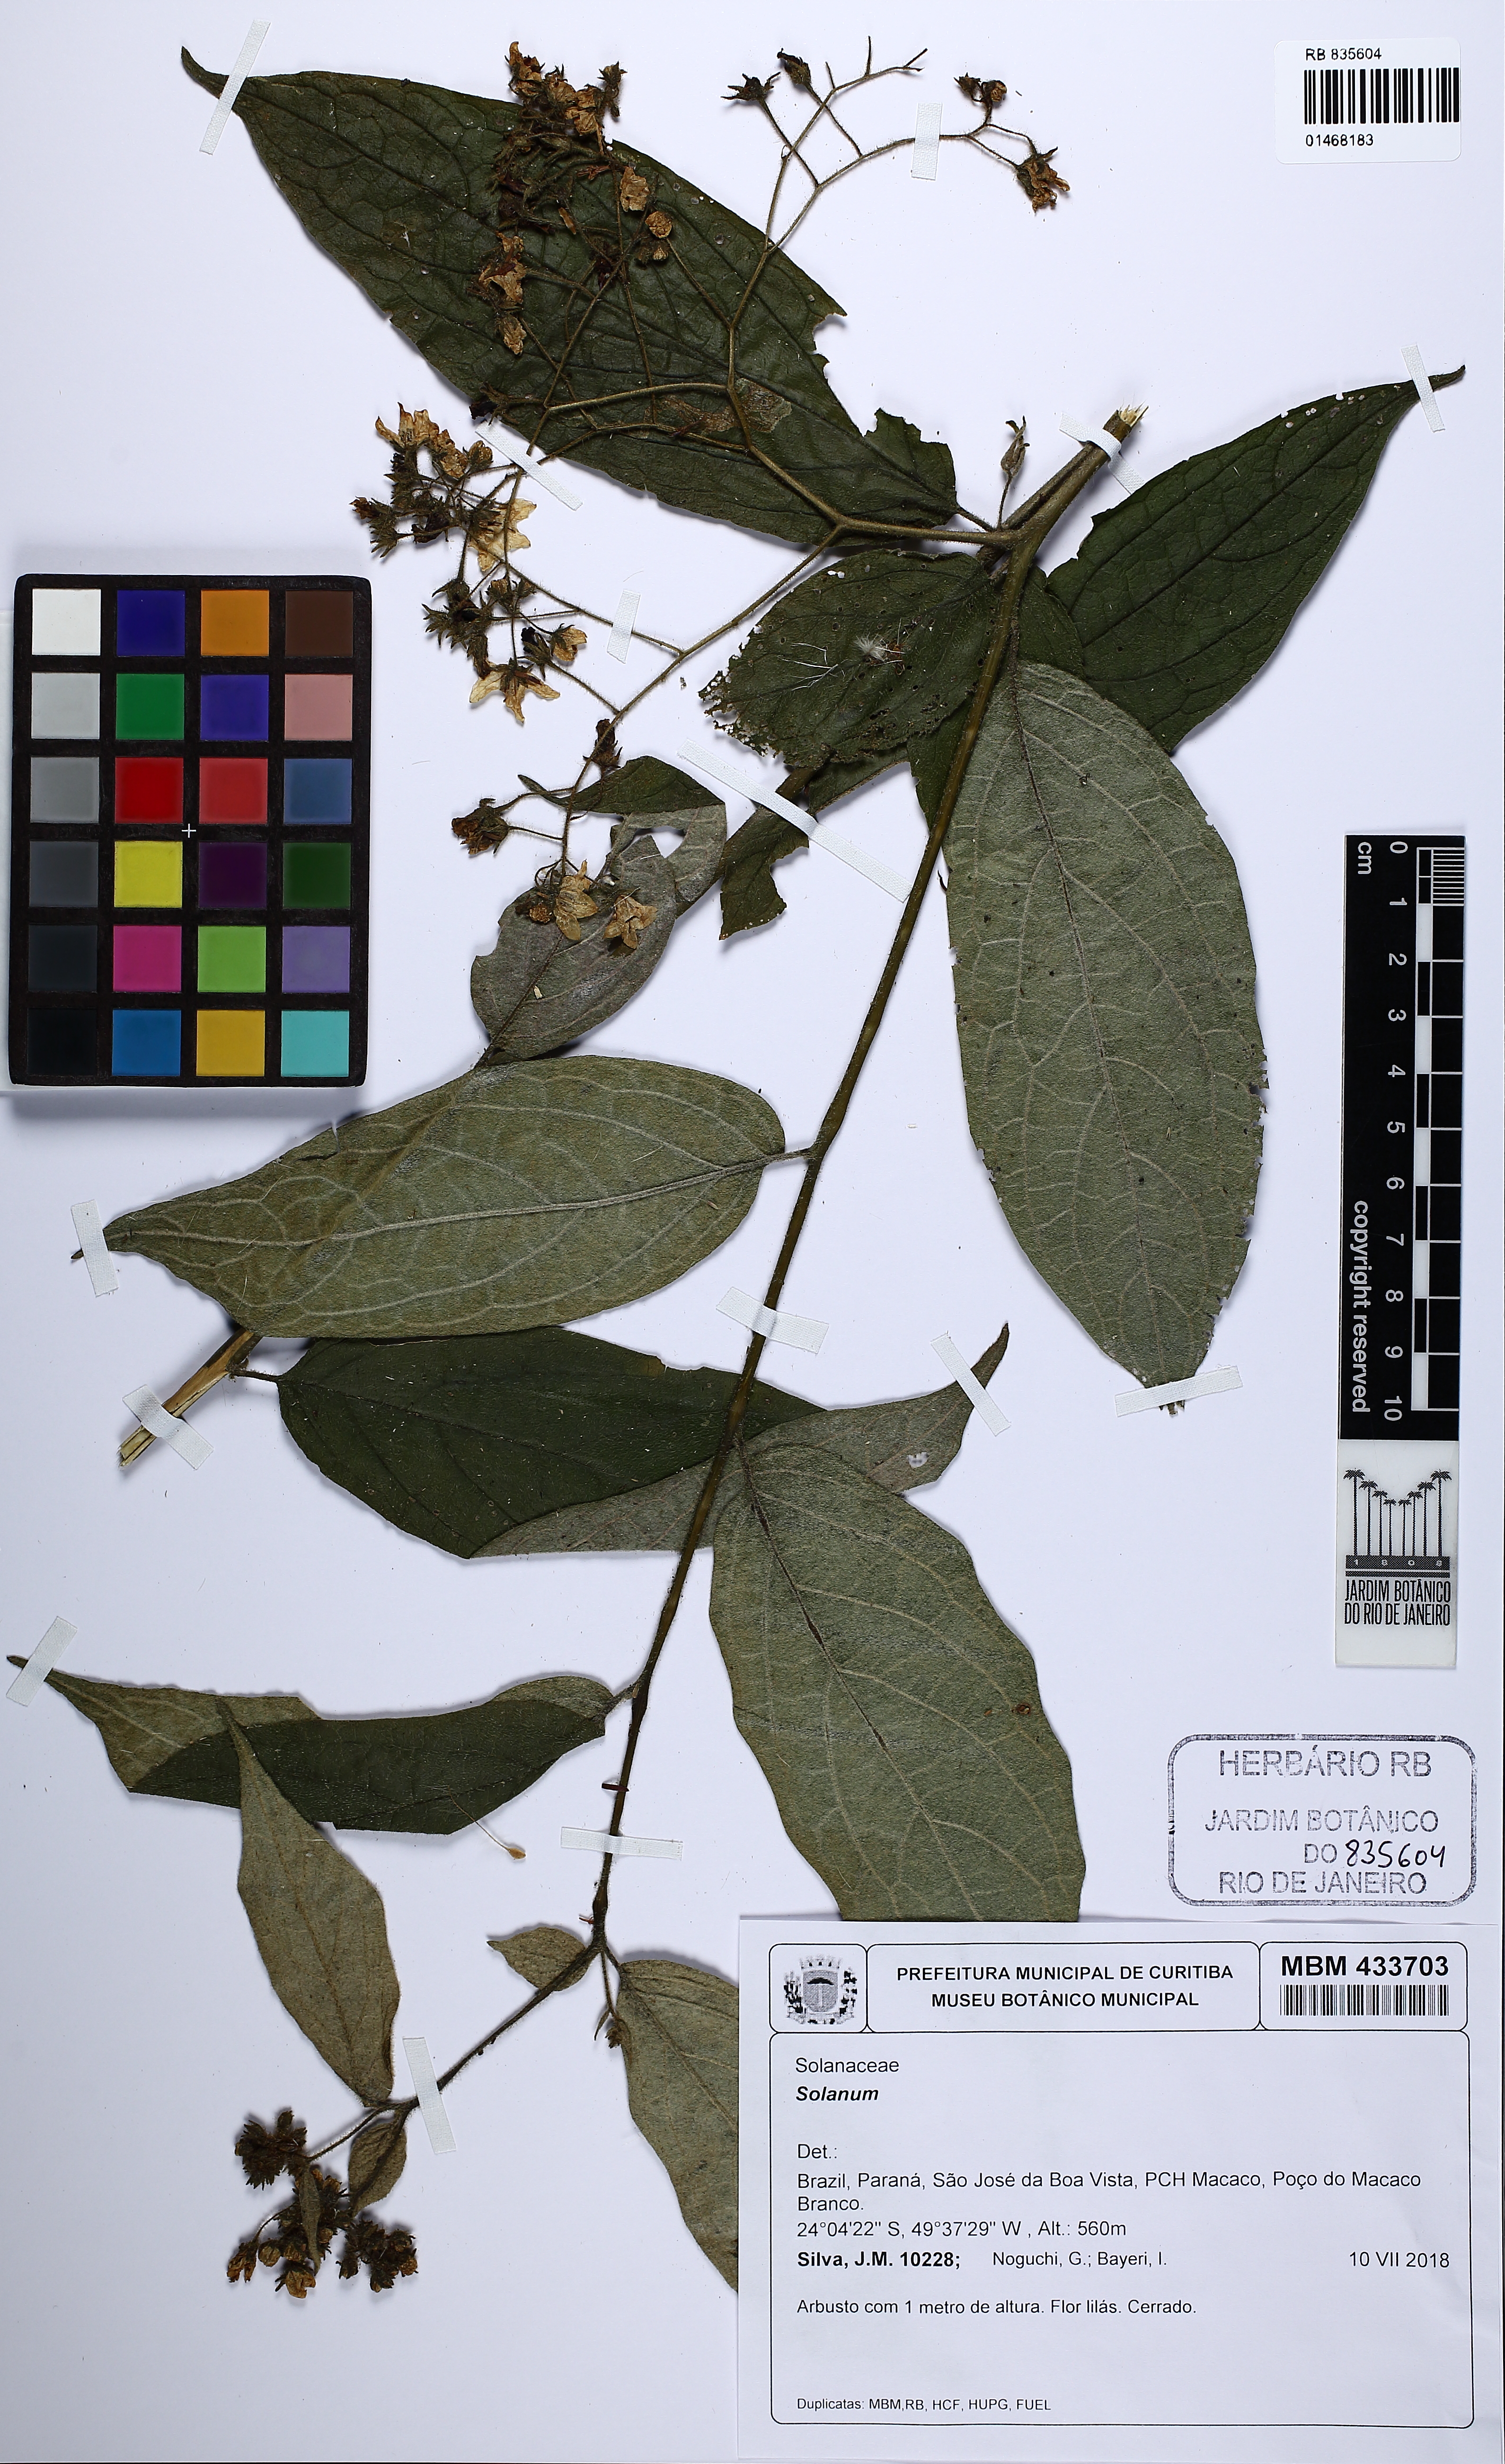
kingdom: Plantae
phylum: Tracheophyta
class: Magnoliopsida
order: Solanales
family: Solanaceae
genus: Solanum
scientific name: Solanum
